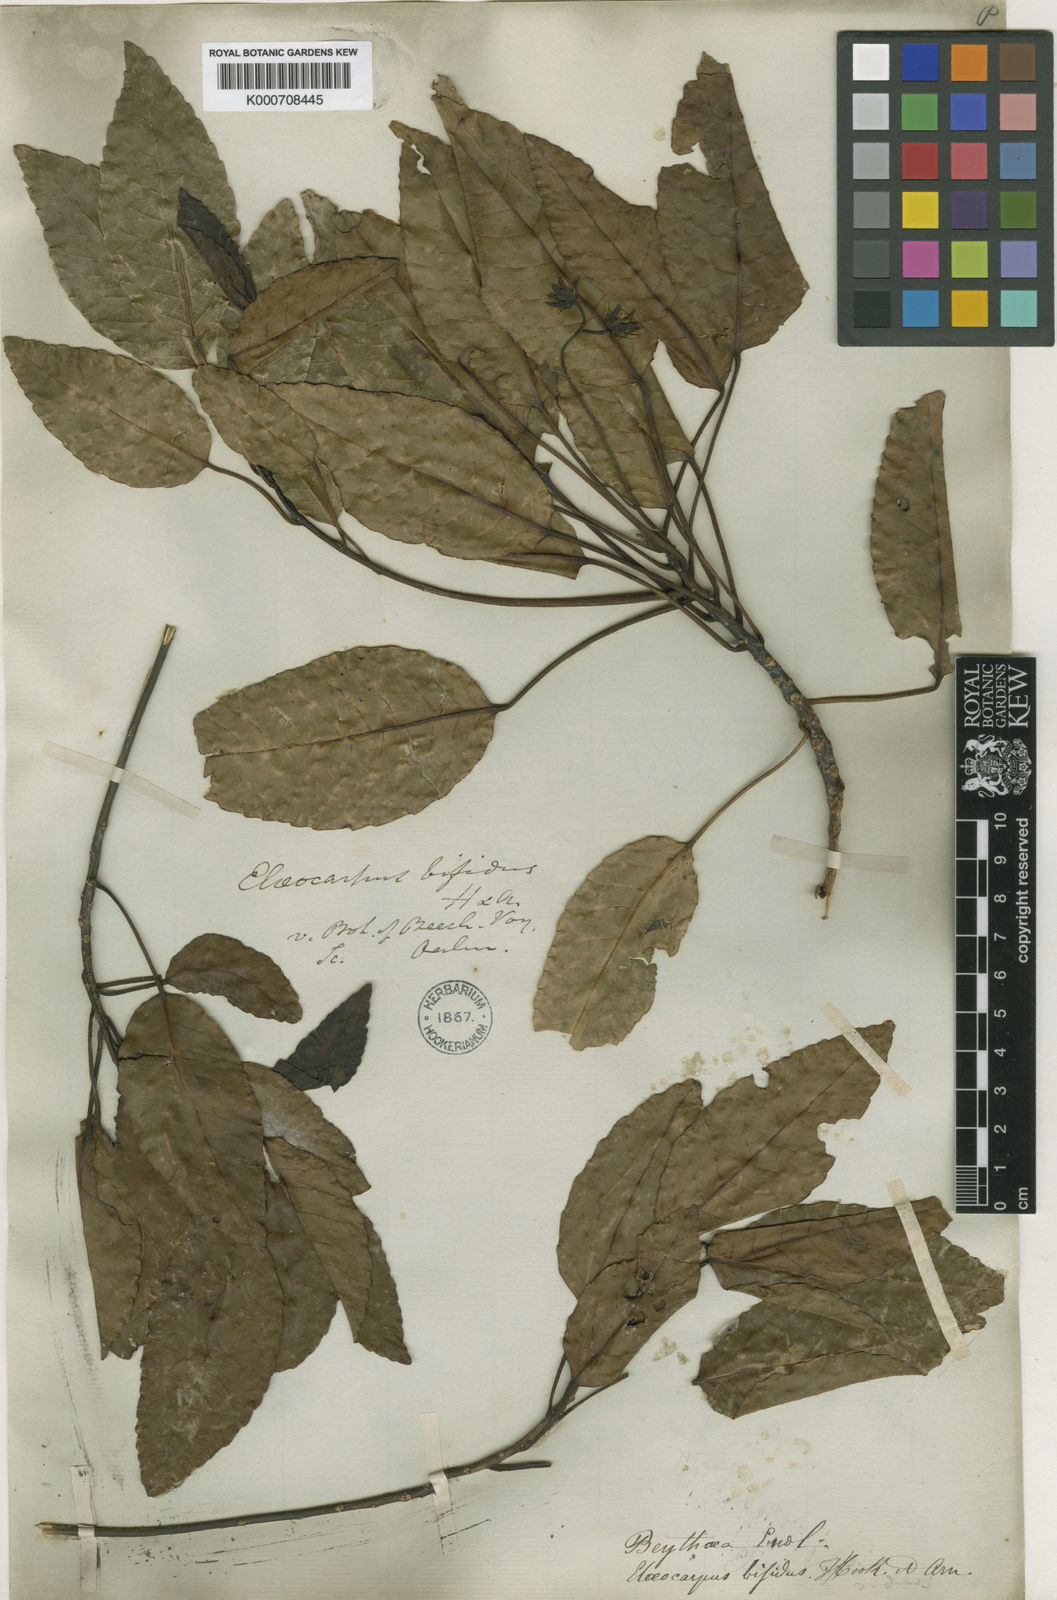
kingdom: Plantae
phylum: Tracheophyta
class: Magnoliopsida
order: Oxalidales
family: Elaeocarpaceae
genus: Elaeocarpus
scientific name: Elaeocarpus bifidus
